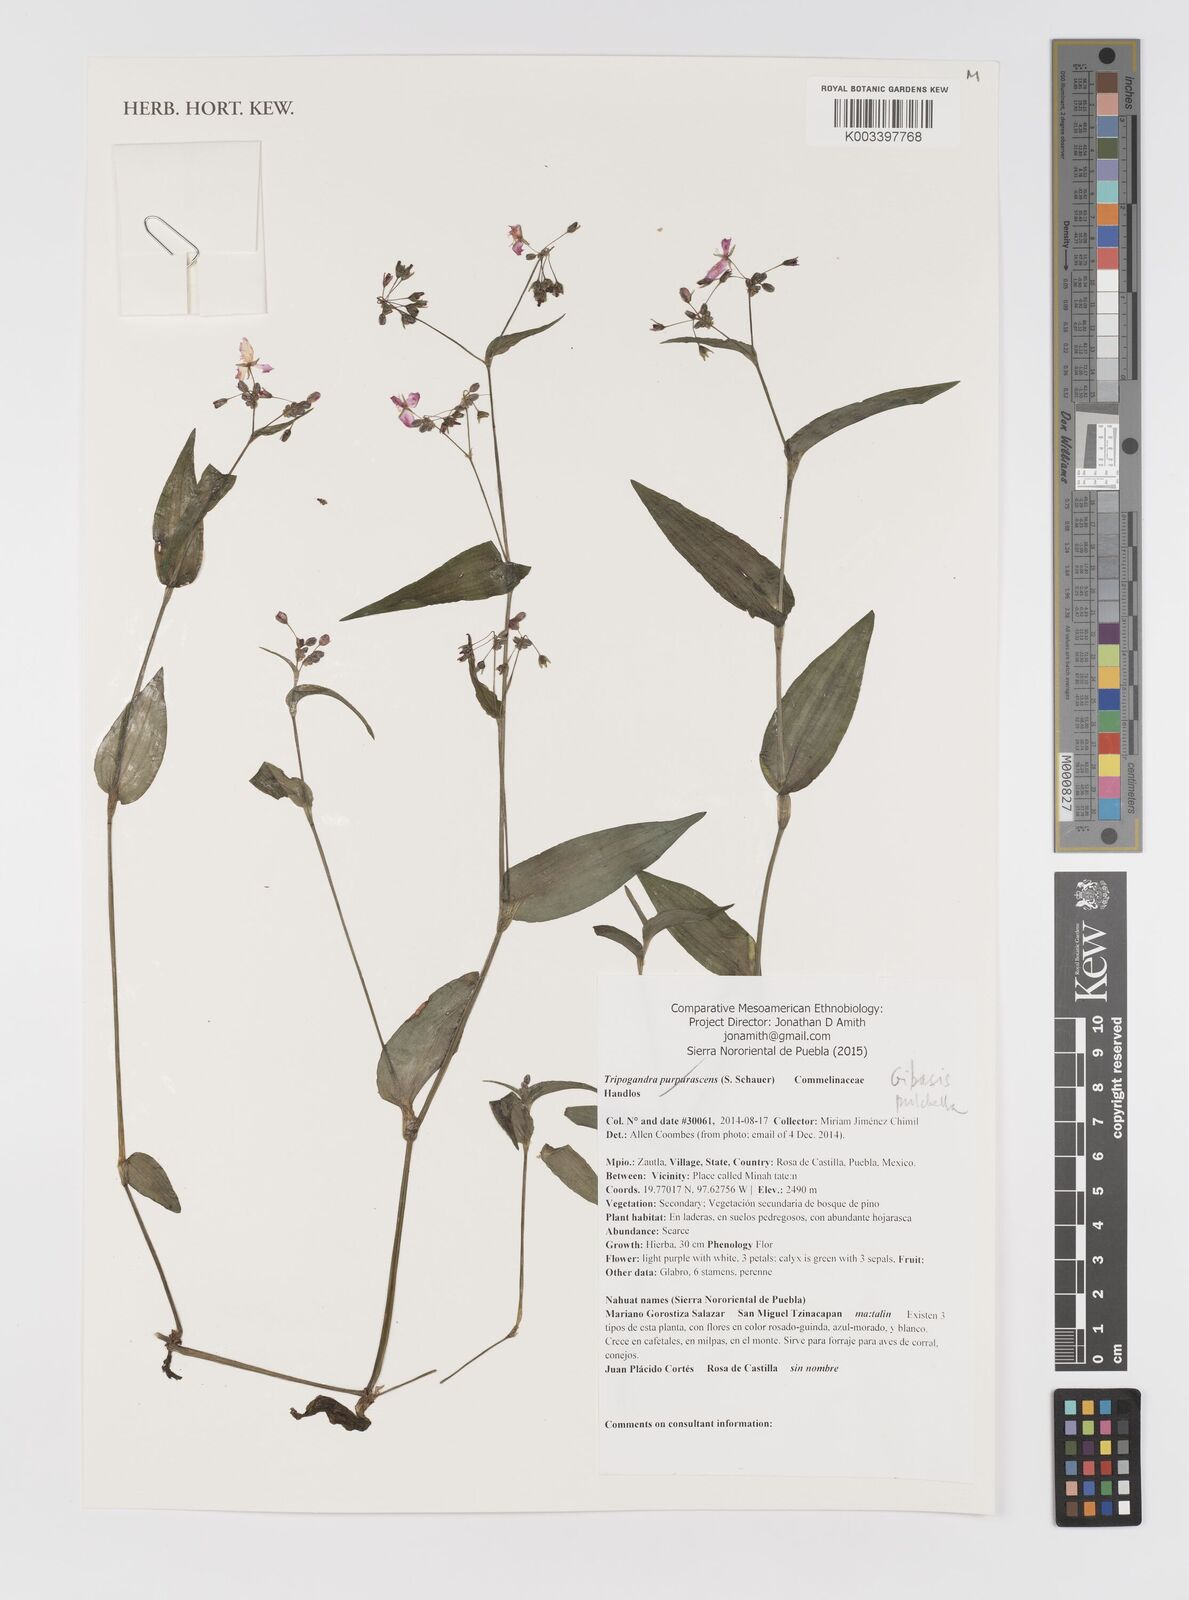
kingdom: Plantae
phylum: Tracheophyta
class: Liliopsida
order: Commelinales
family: Commelinaceae
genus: Gibasis
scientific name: Gibasis pulchella
